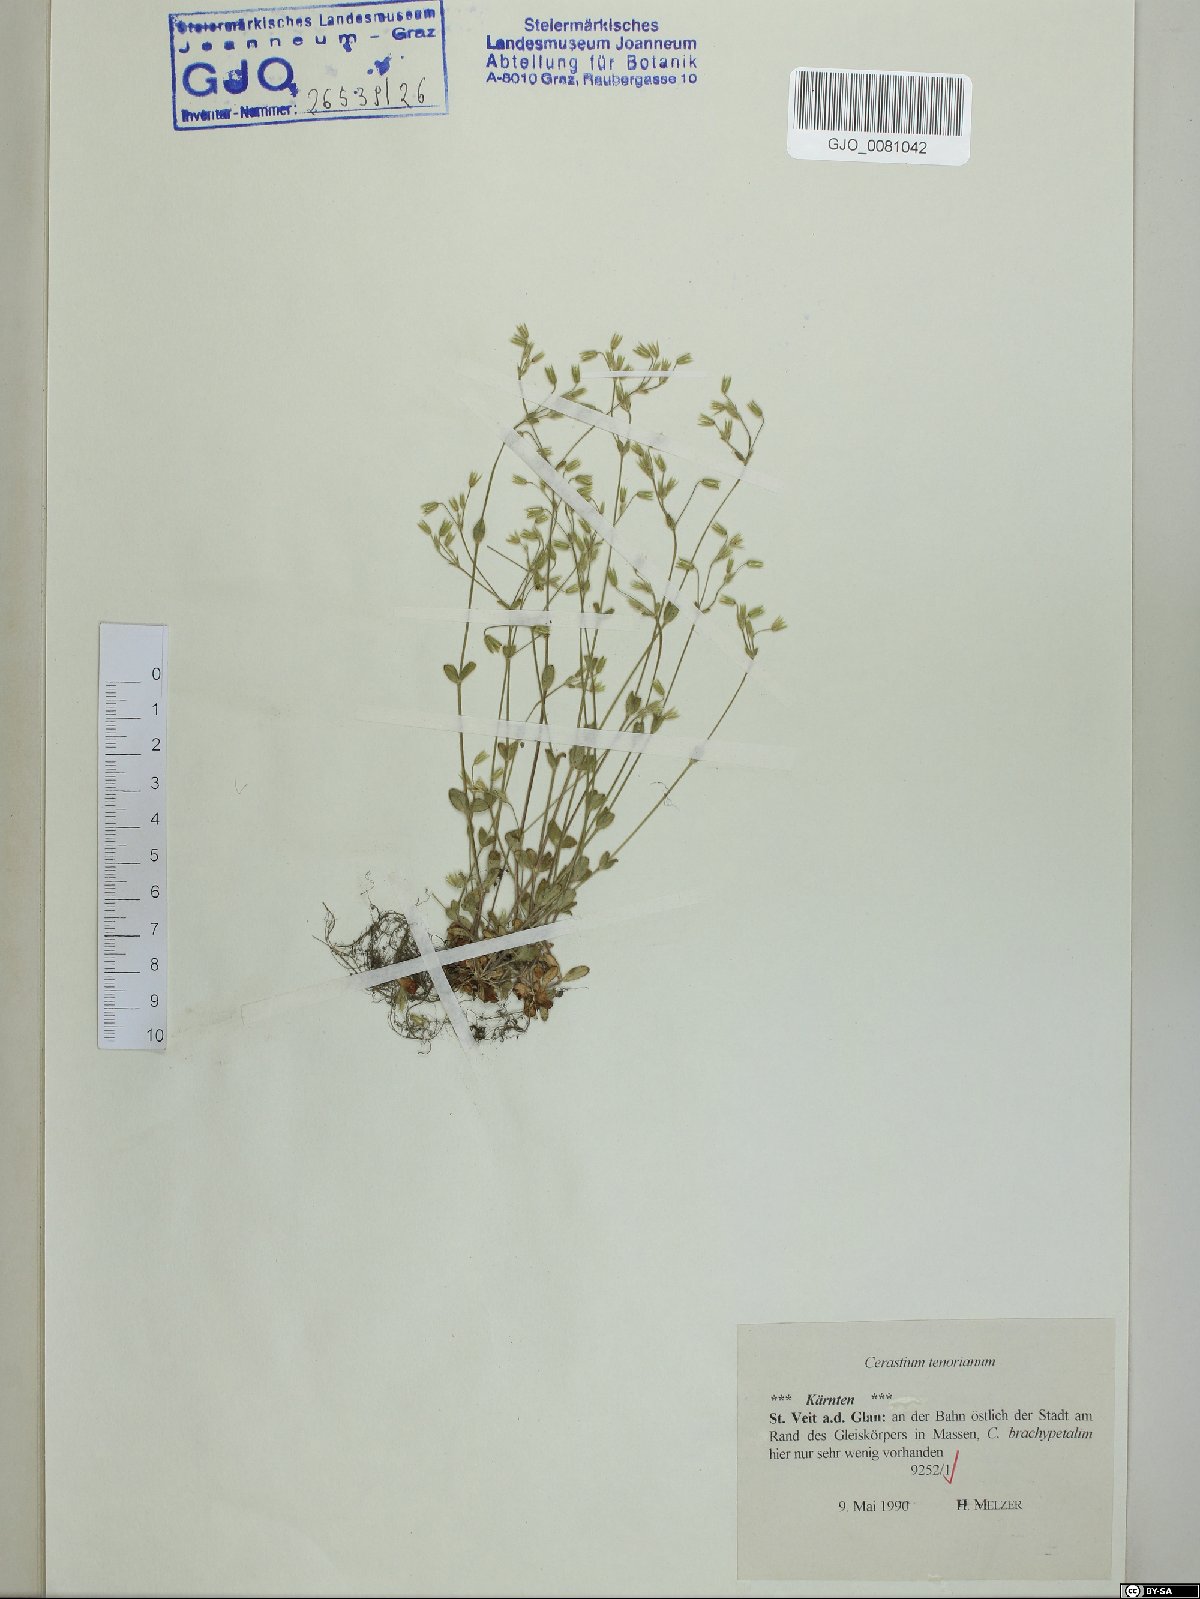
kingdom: Plantae
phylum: Tracheophyta
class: Magnoliopsida
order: Caryophyllales
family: Caryophyllaceae
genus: Cerastium
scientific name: Cerastium tenoreanum
